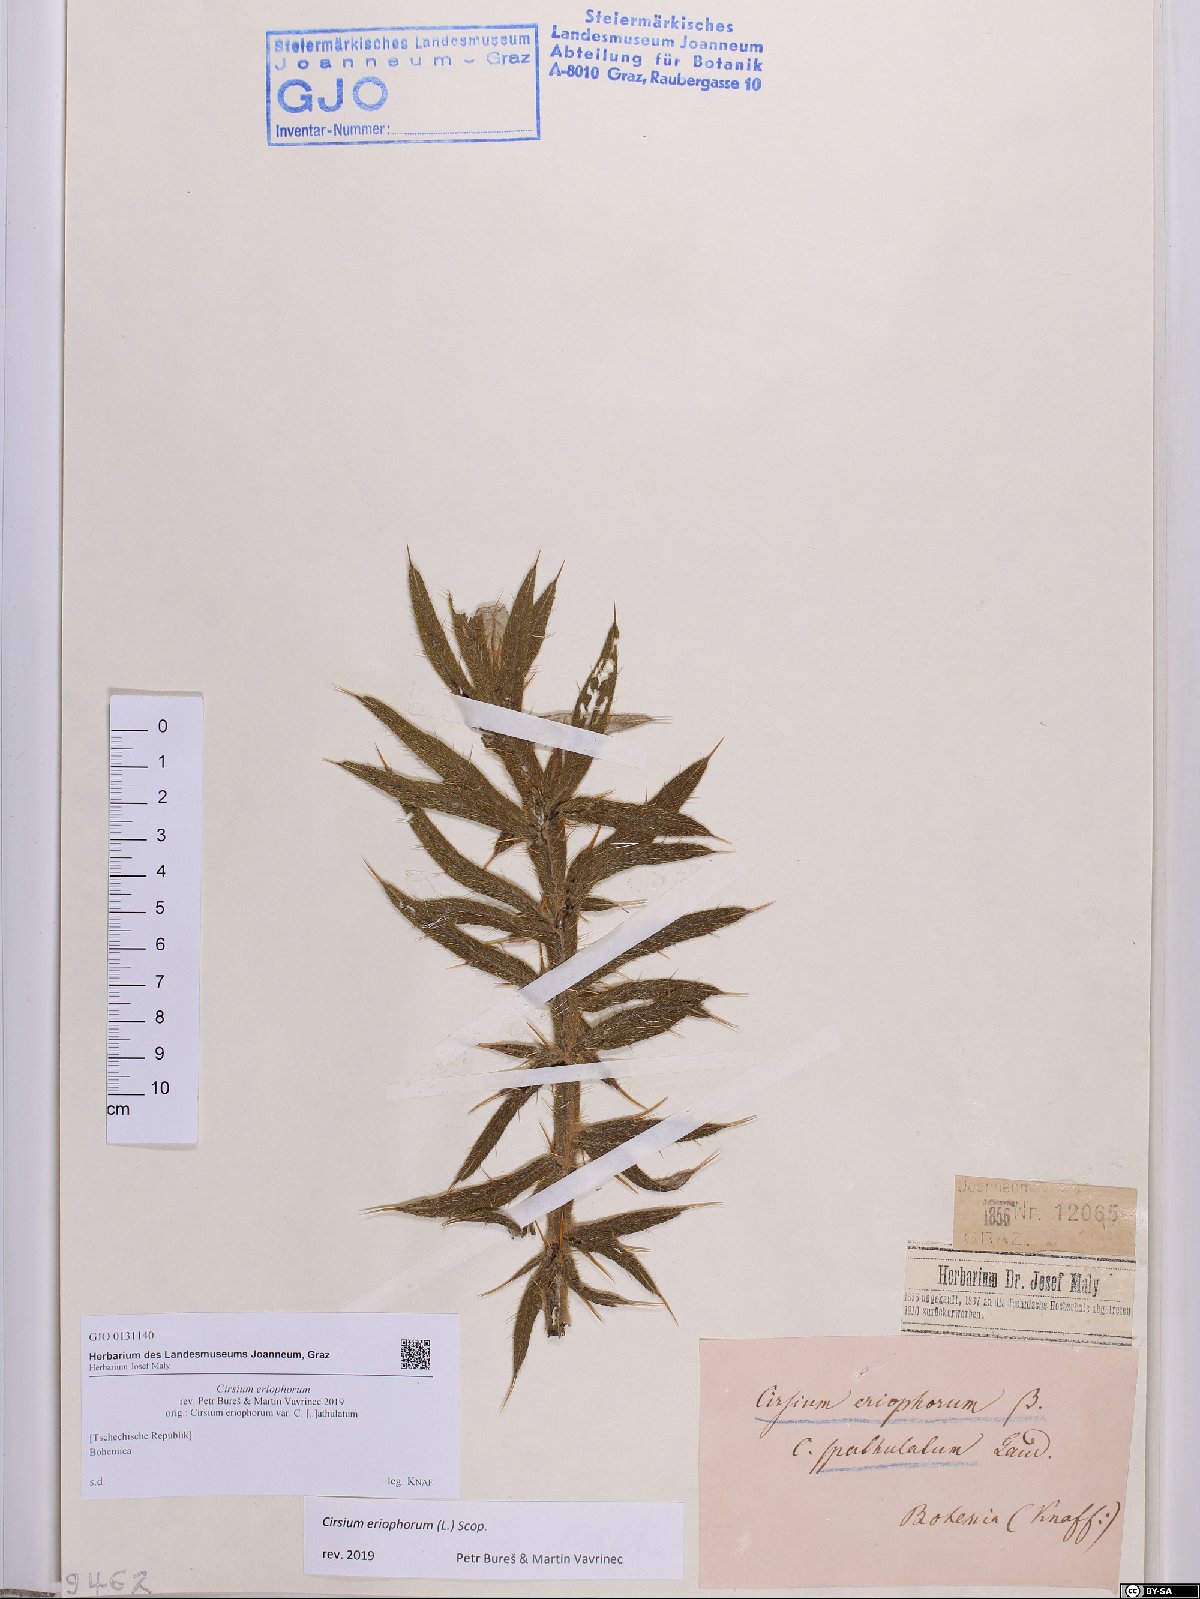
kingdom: Plantae
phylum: Tracheophyta
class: Magnoliopsida
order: Asterales
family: Asteraceae
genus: Lophiolepis
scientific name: Lophiolepis eriophora
